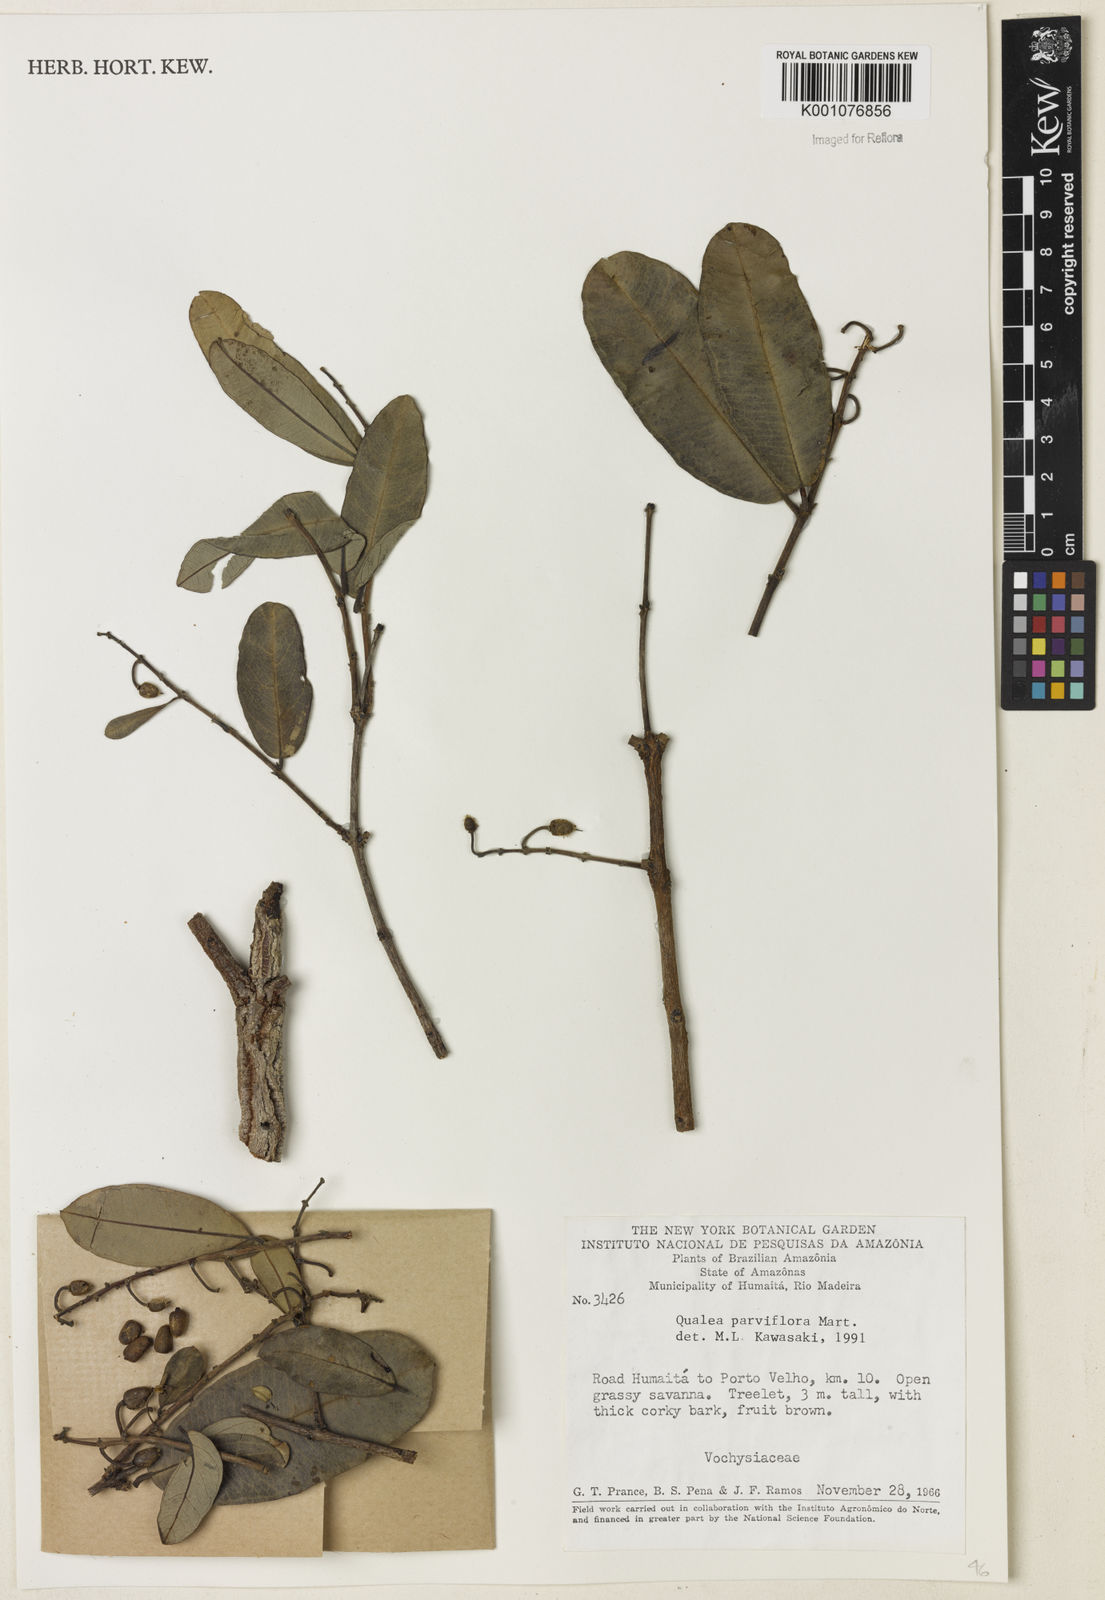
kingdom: Plantae
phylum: Tracheophyta
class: Magnoliopsida
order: Myrtales
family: Vochysiaceae
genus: Qualea
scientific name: Qualea parviflora
